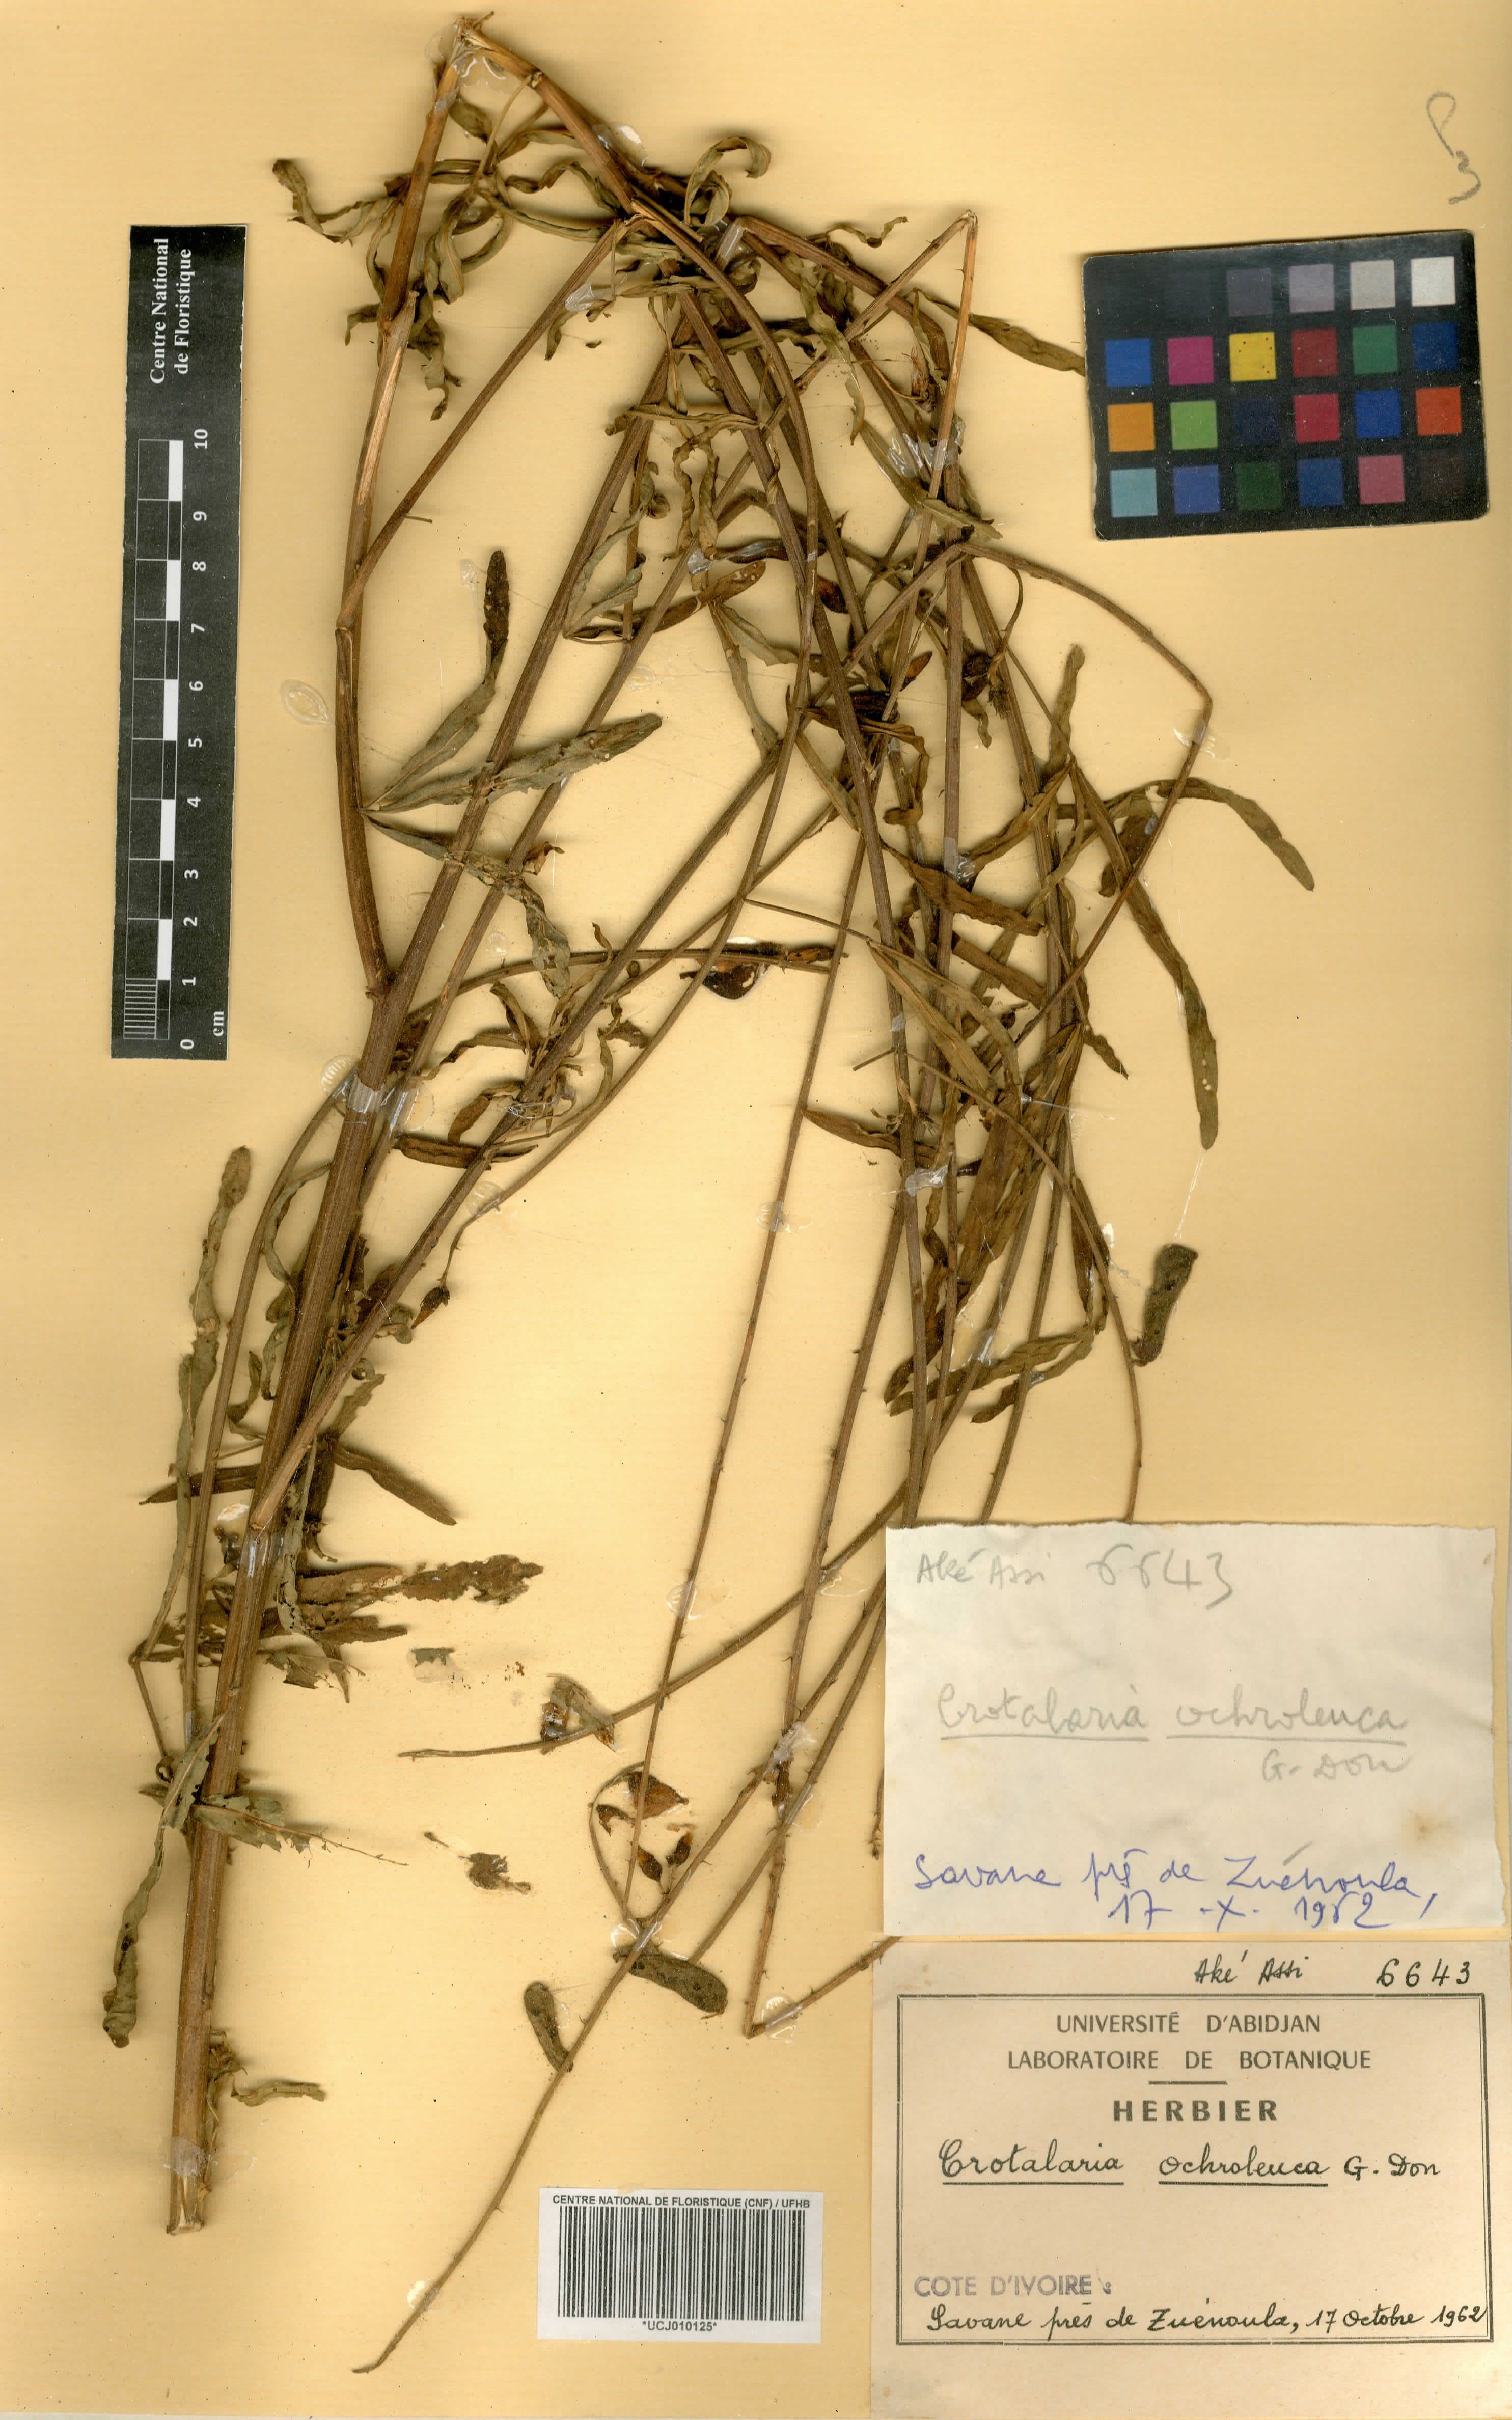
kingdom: Plantae
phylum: Tracheophyta
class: Magnoliopsida
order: Fabales
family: Fabaceae
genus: Crotalaria
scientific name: Crotalaria ochroleuca
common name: Slender leaf rattlebox
